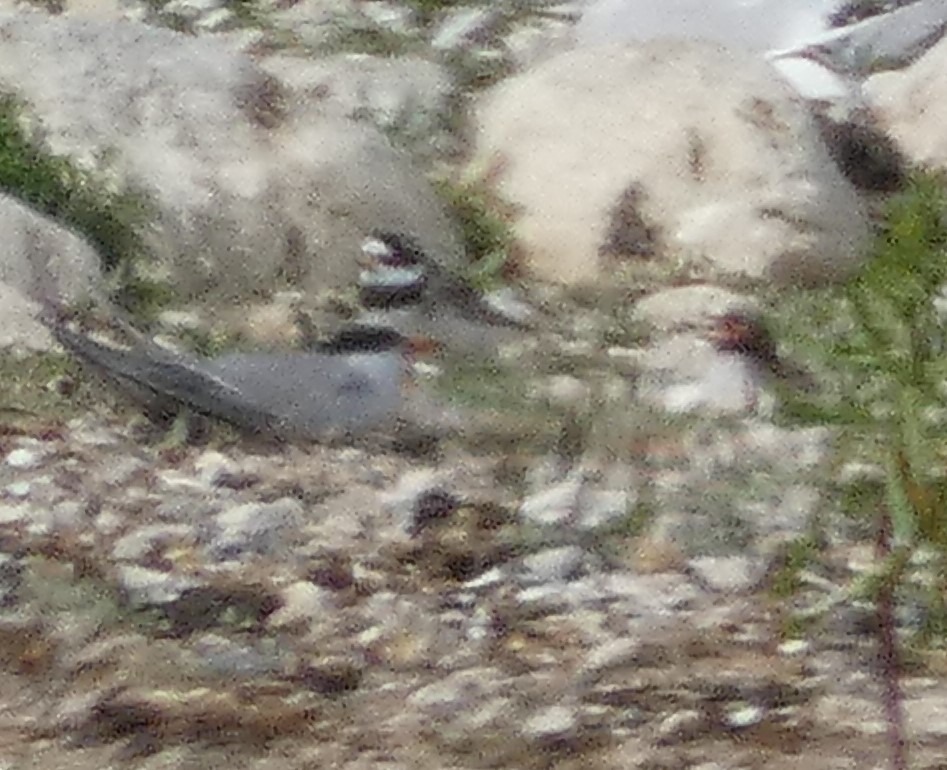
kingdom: Animalia
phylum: Chordata
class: Aves
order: Charadriiformes
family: Charadriidae
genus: Charadrius
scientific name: Charadrius hiaticula
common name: Stor præstekrave
